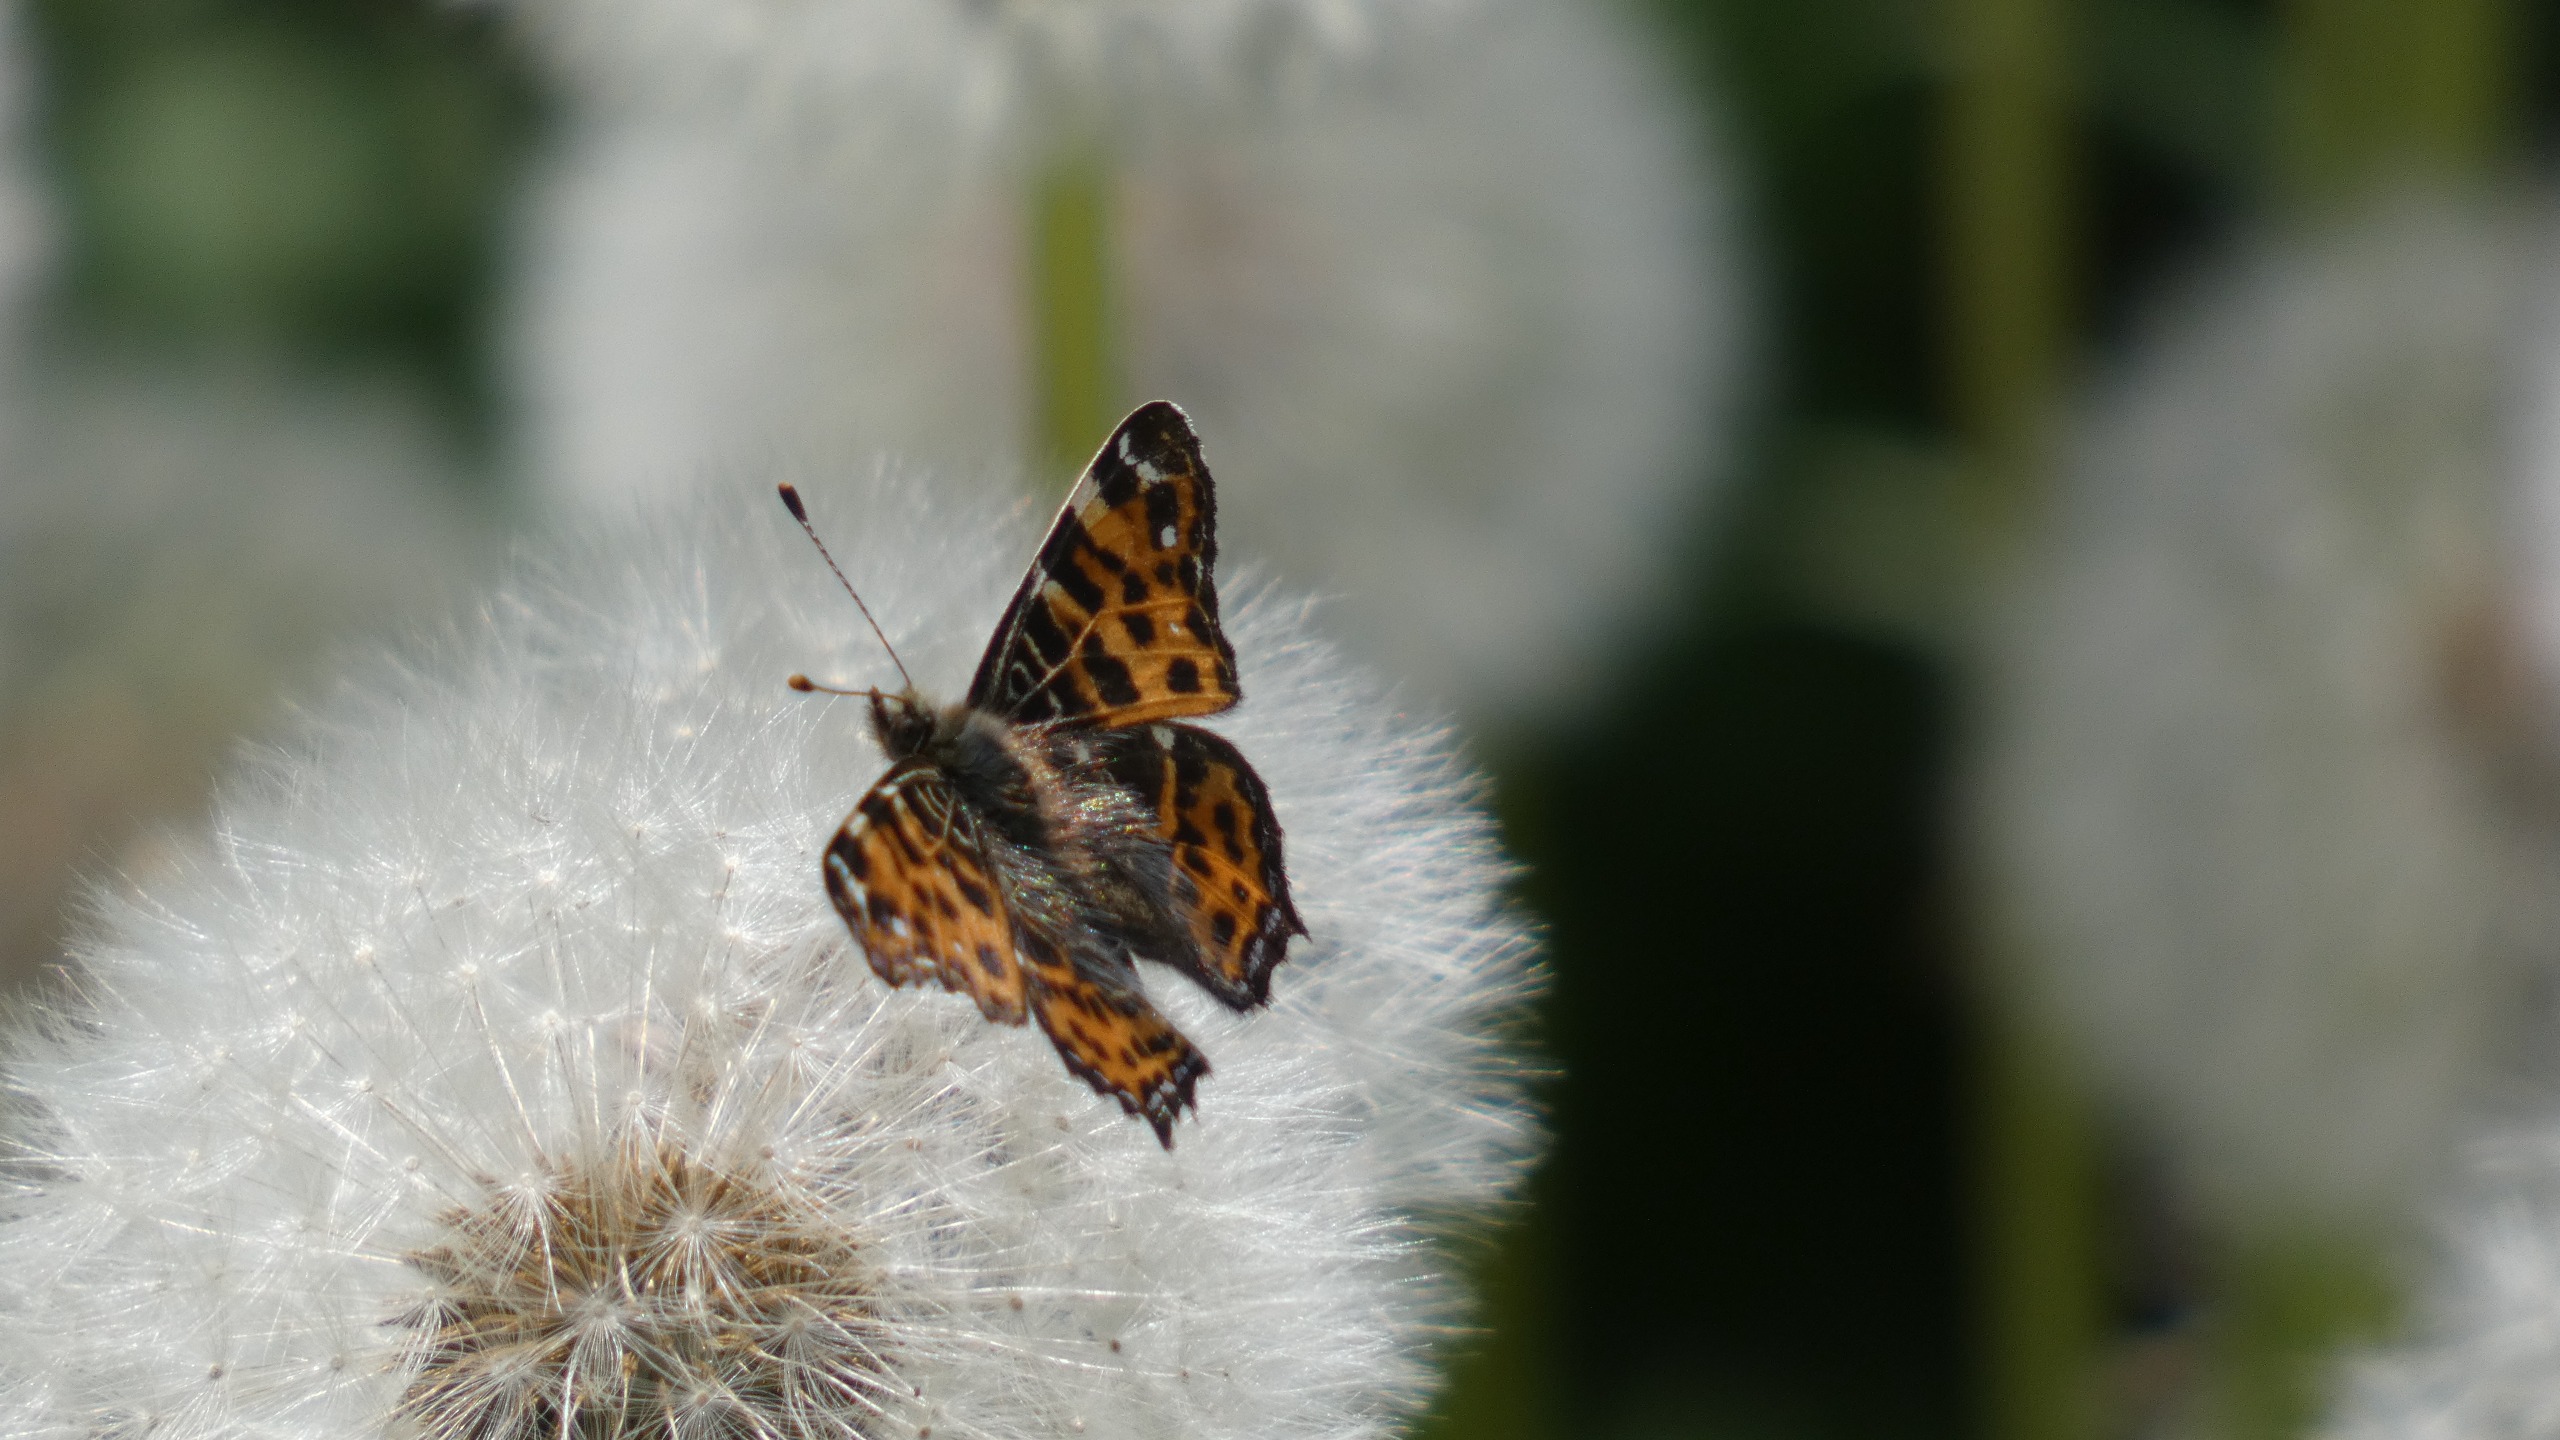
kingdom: Animalia
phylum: Arthropoda
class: Insecta
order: Lepidoptera
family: Nymphalidae
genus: Araschnia
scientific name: Araschnia levana
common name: Nældesommerfugl
